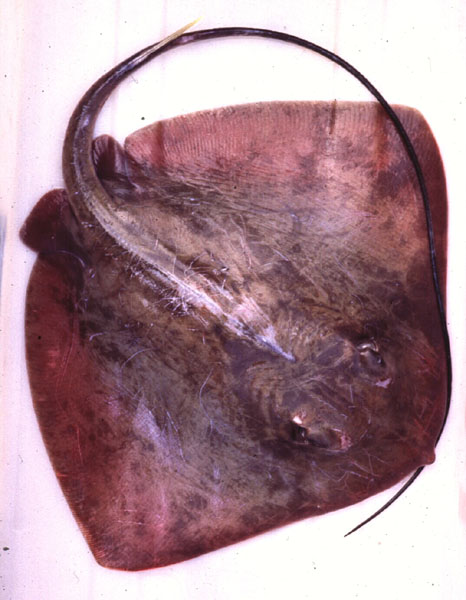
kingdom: Animalia
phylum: Chordata
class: Elasmobranchii
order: Myliobatiformes
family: Dasyatidae
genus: Dasyatis
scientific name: Dasyatis thetidis
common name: Thorntail stingray
